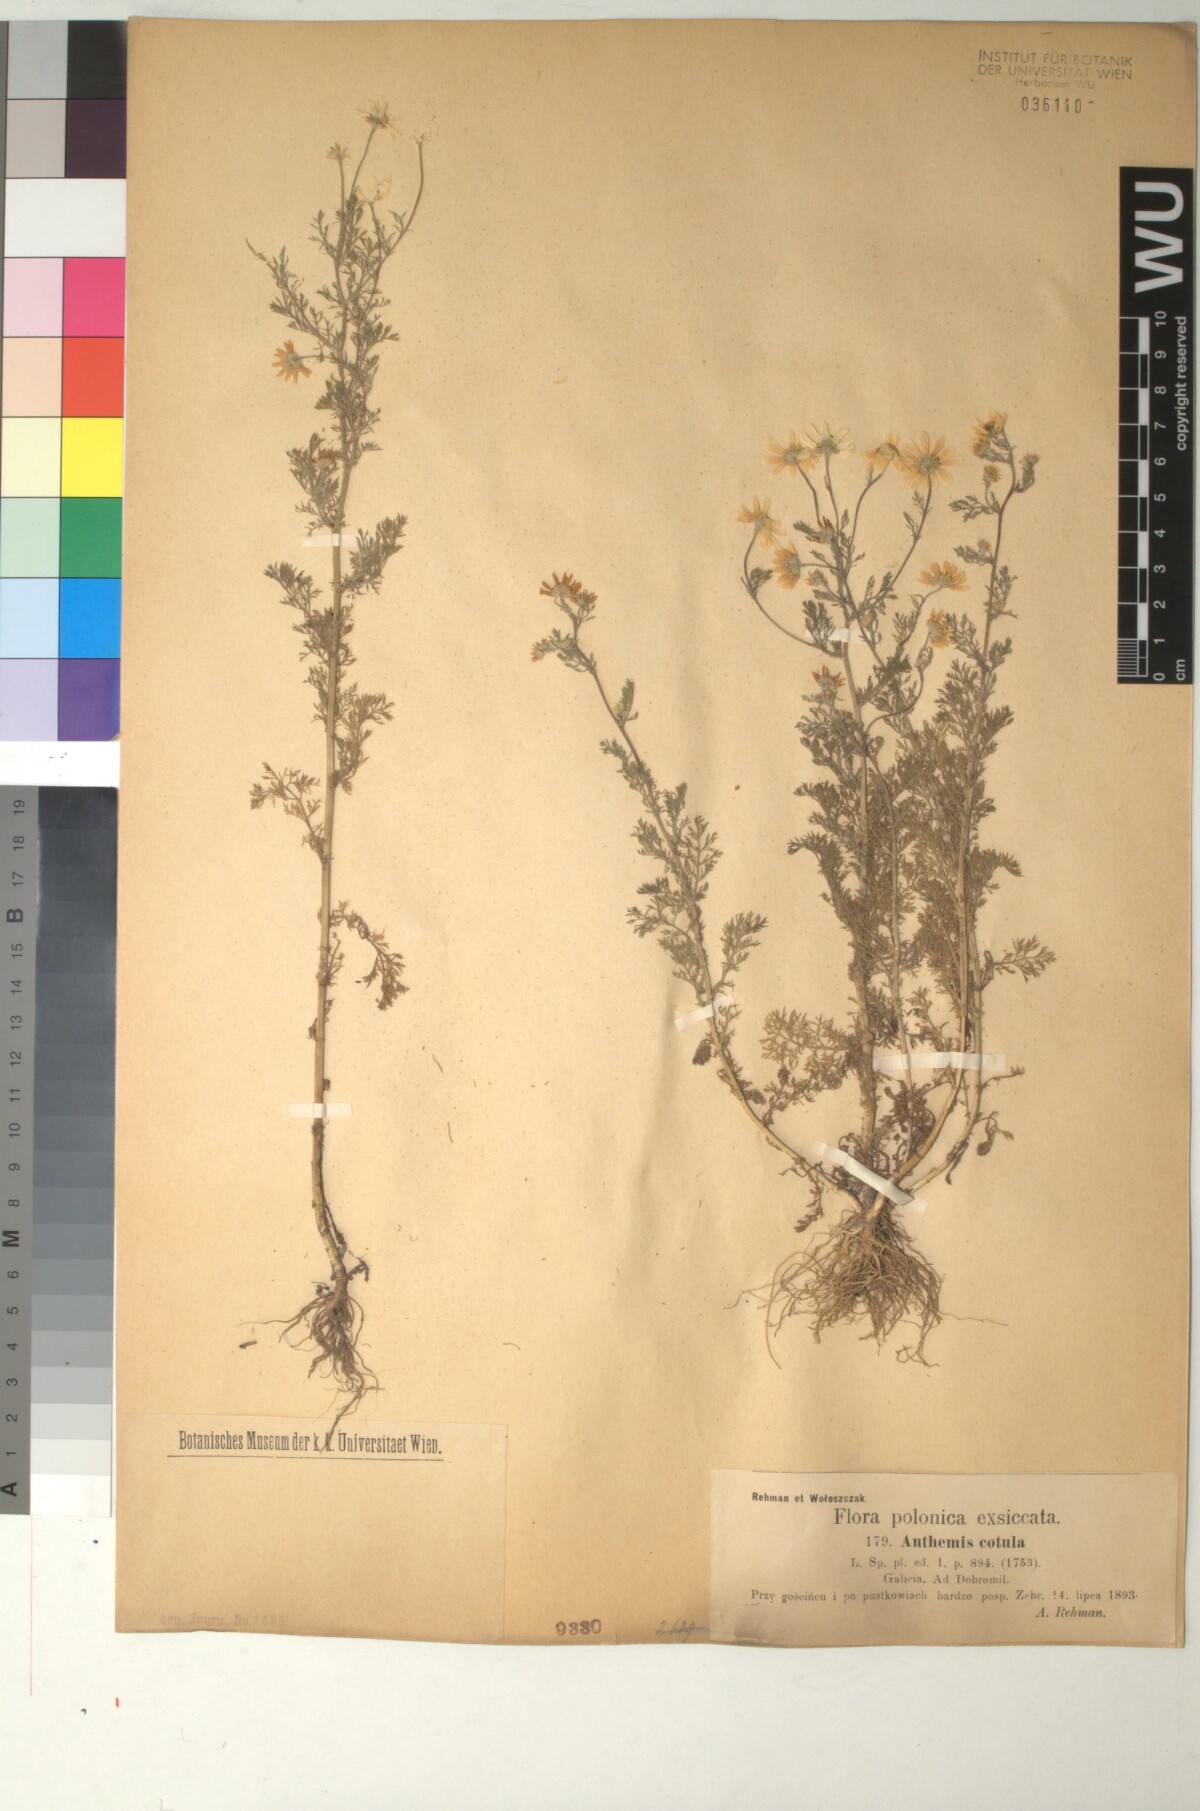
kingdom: Plantae
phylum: Tracheophyta
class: Magnoliopsida
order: Asterales
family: Asteraceae
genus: Anthemis
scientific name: Anthemis cotula
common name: Stinking chamomile
